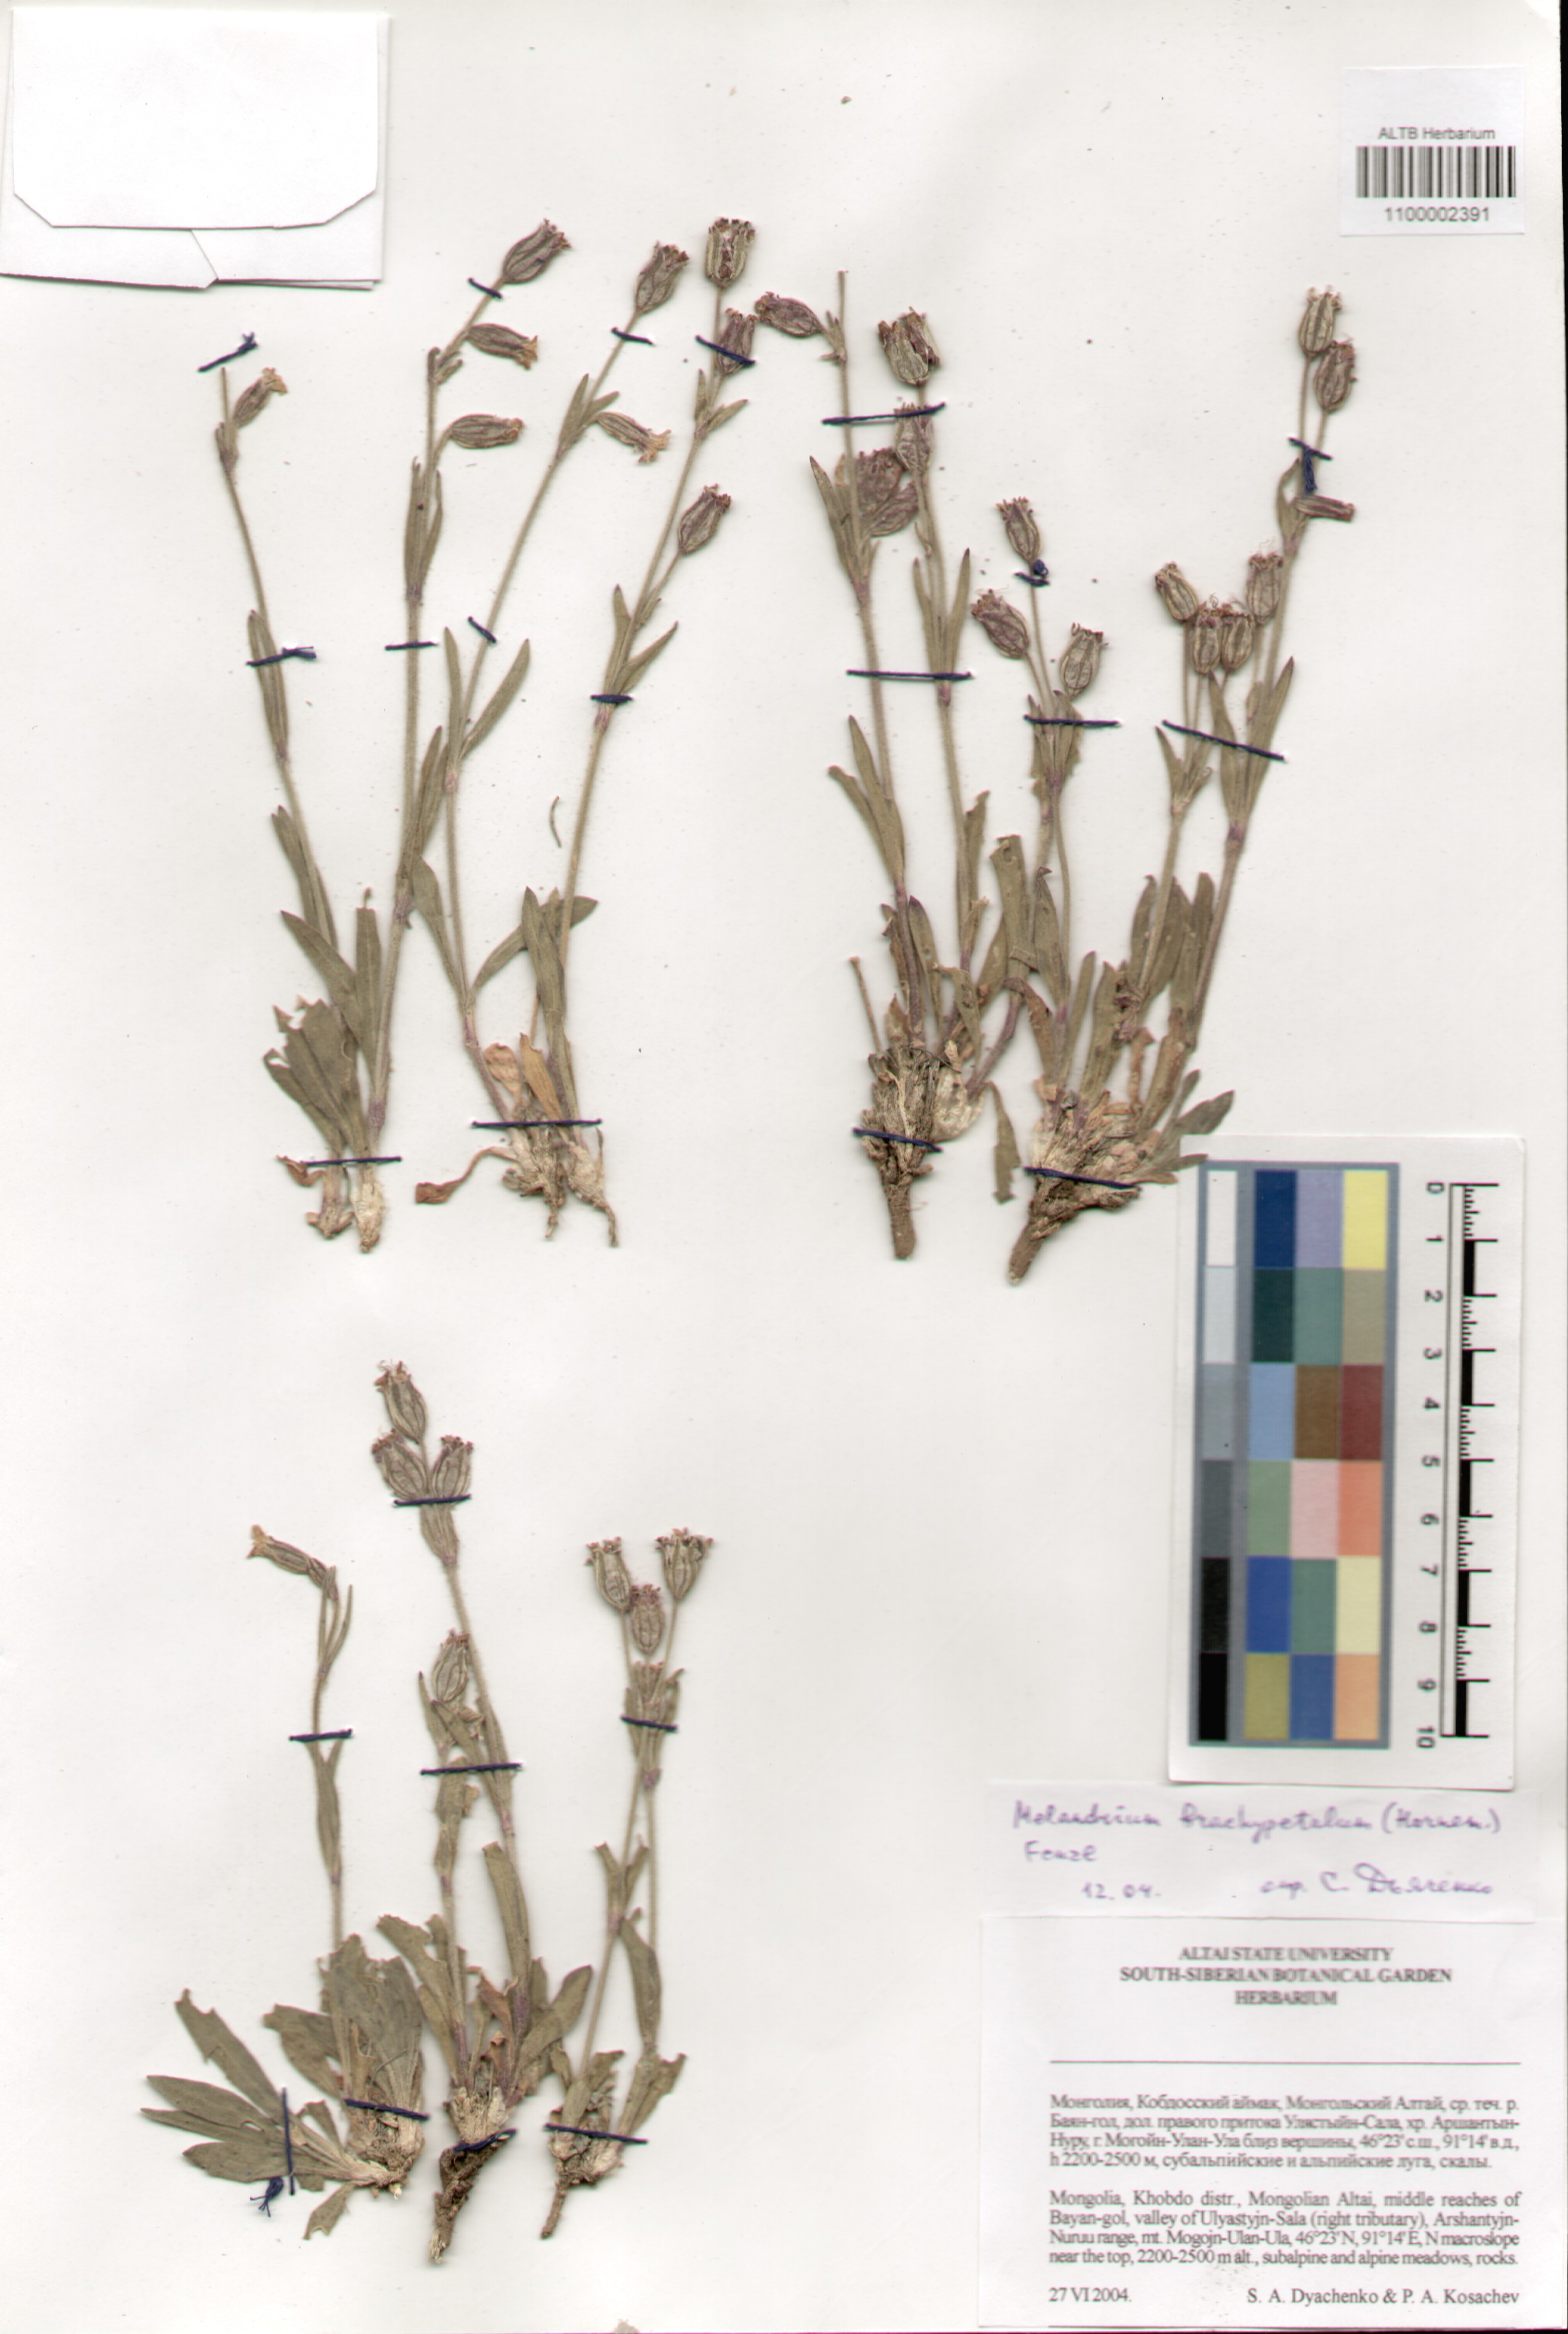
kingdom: Plantae
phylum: Tracheophyta
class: Magnoliopsida
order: Caryophyllales
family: Caryophyllaceae
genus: Silene
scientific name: Silene songarica
